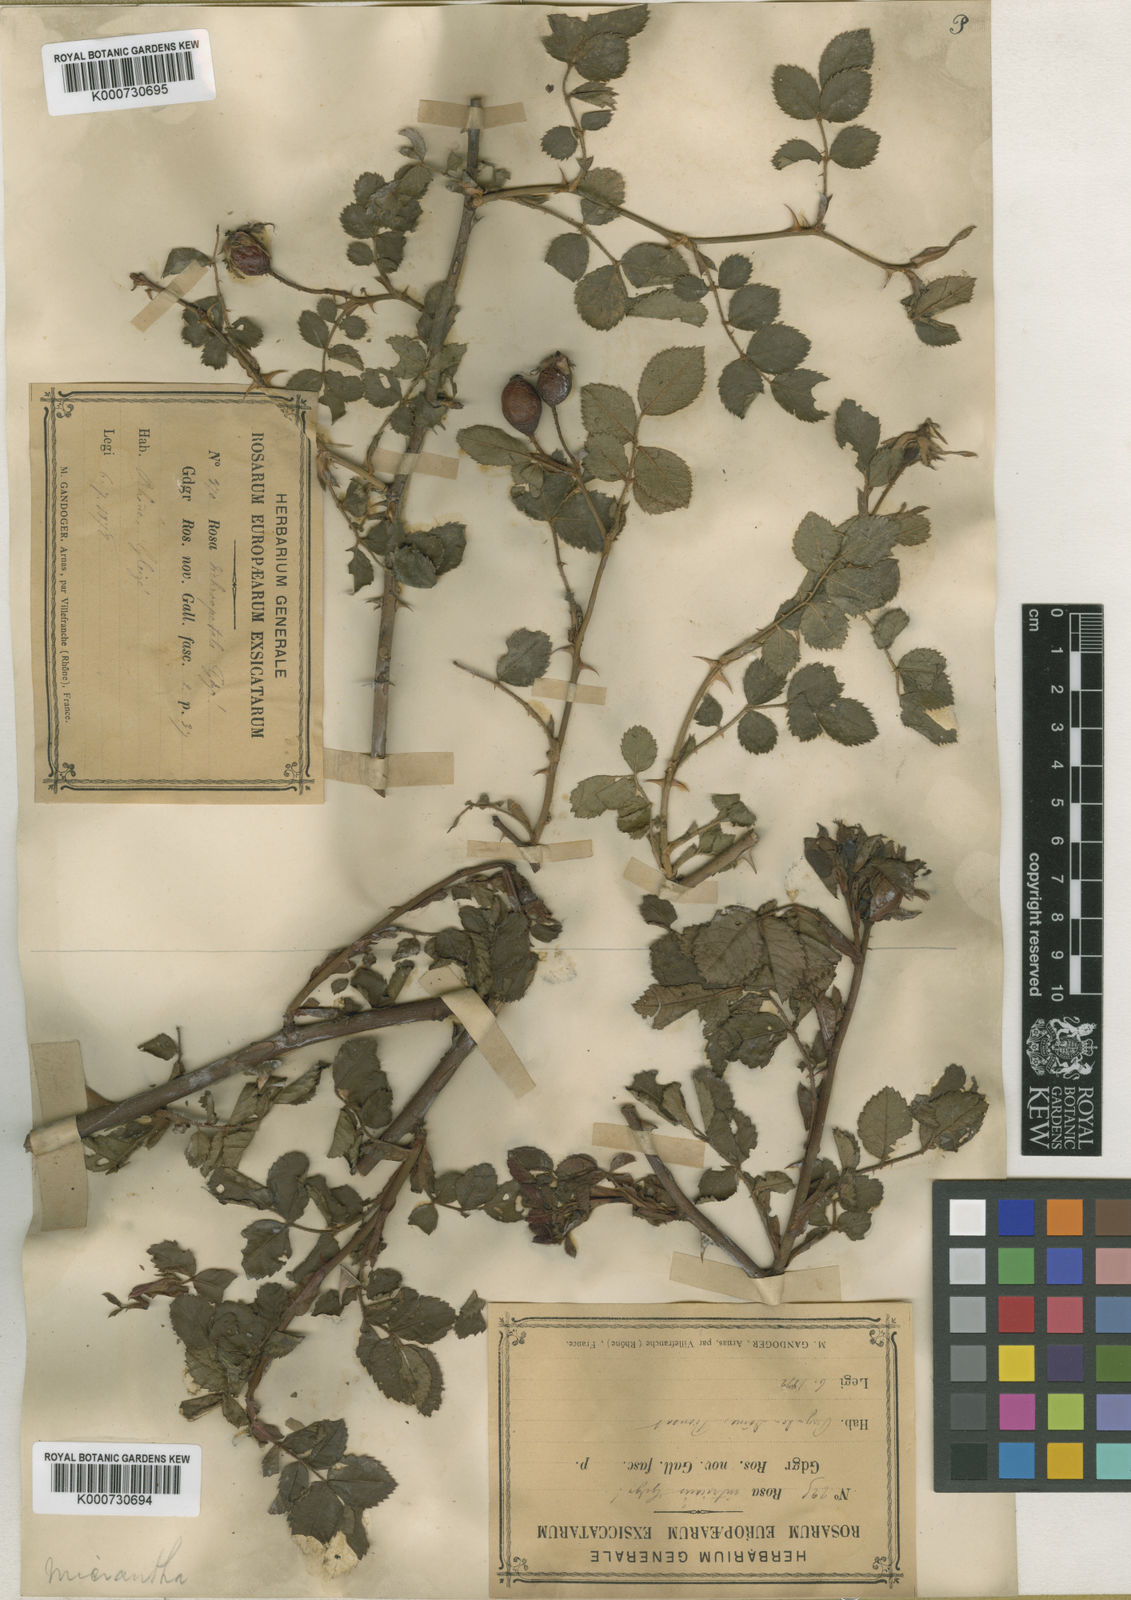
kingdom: Plantae
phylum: Tracheophyta
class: Magnoliopsida
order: Rosales
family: Rosaceae
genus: Rosa
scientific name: Rosa
